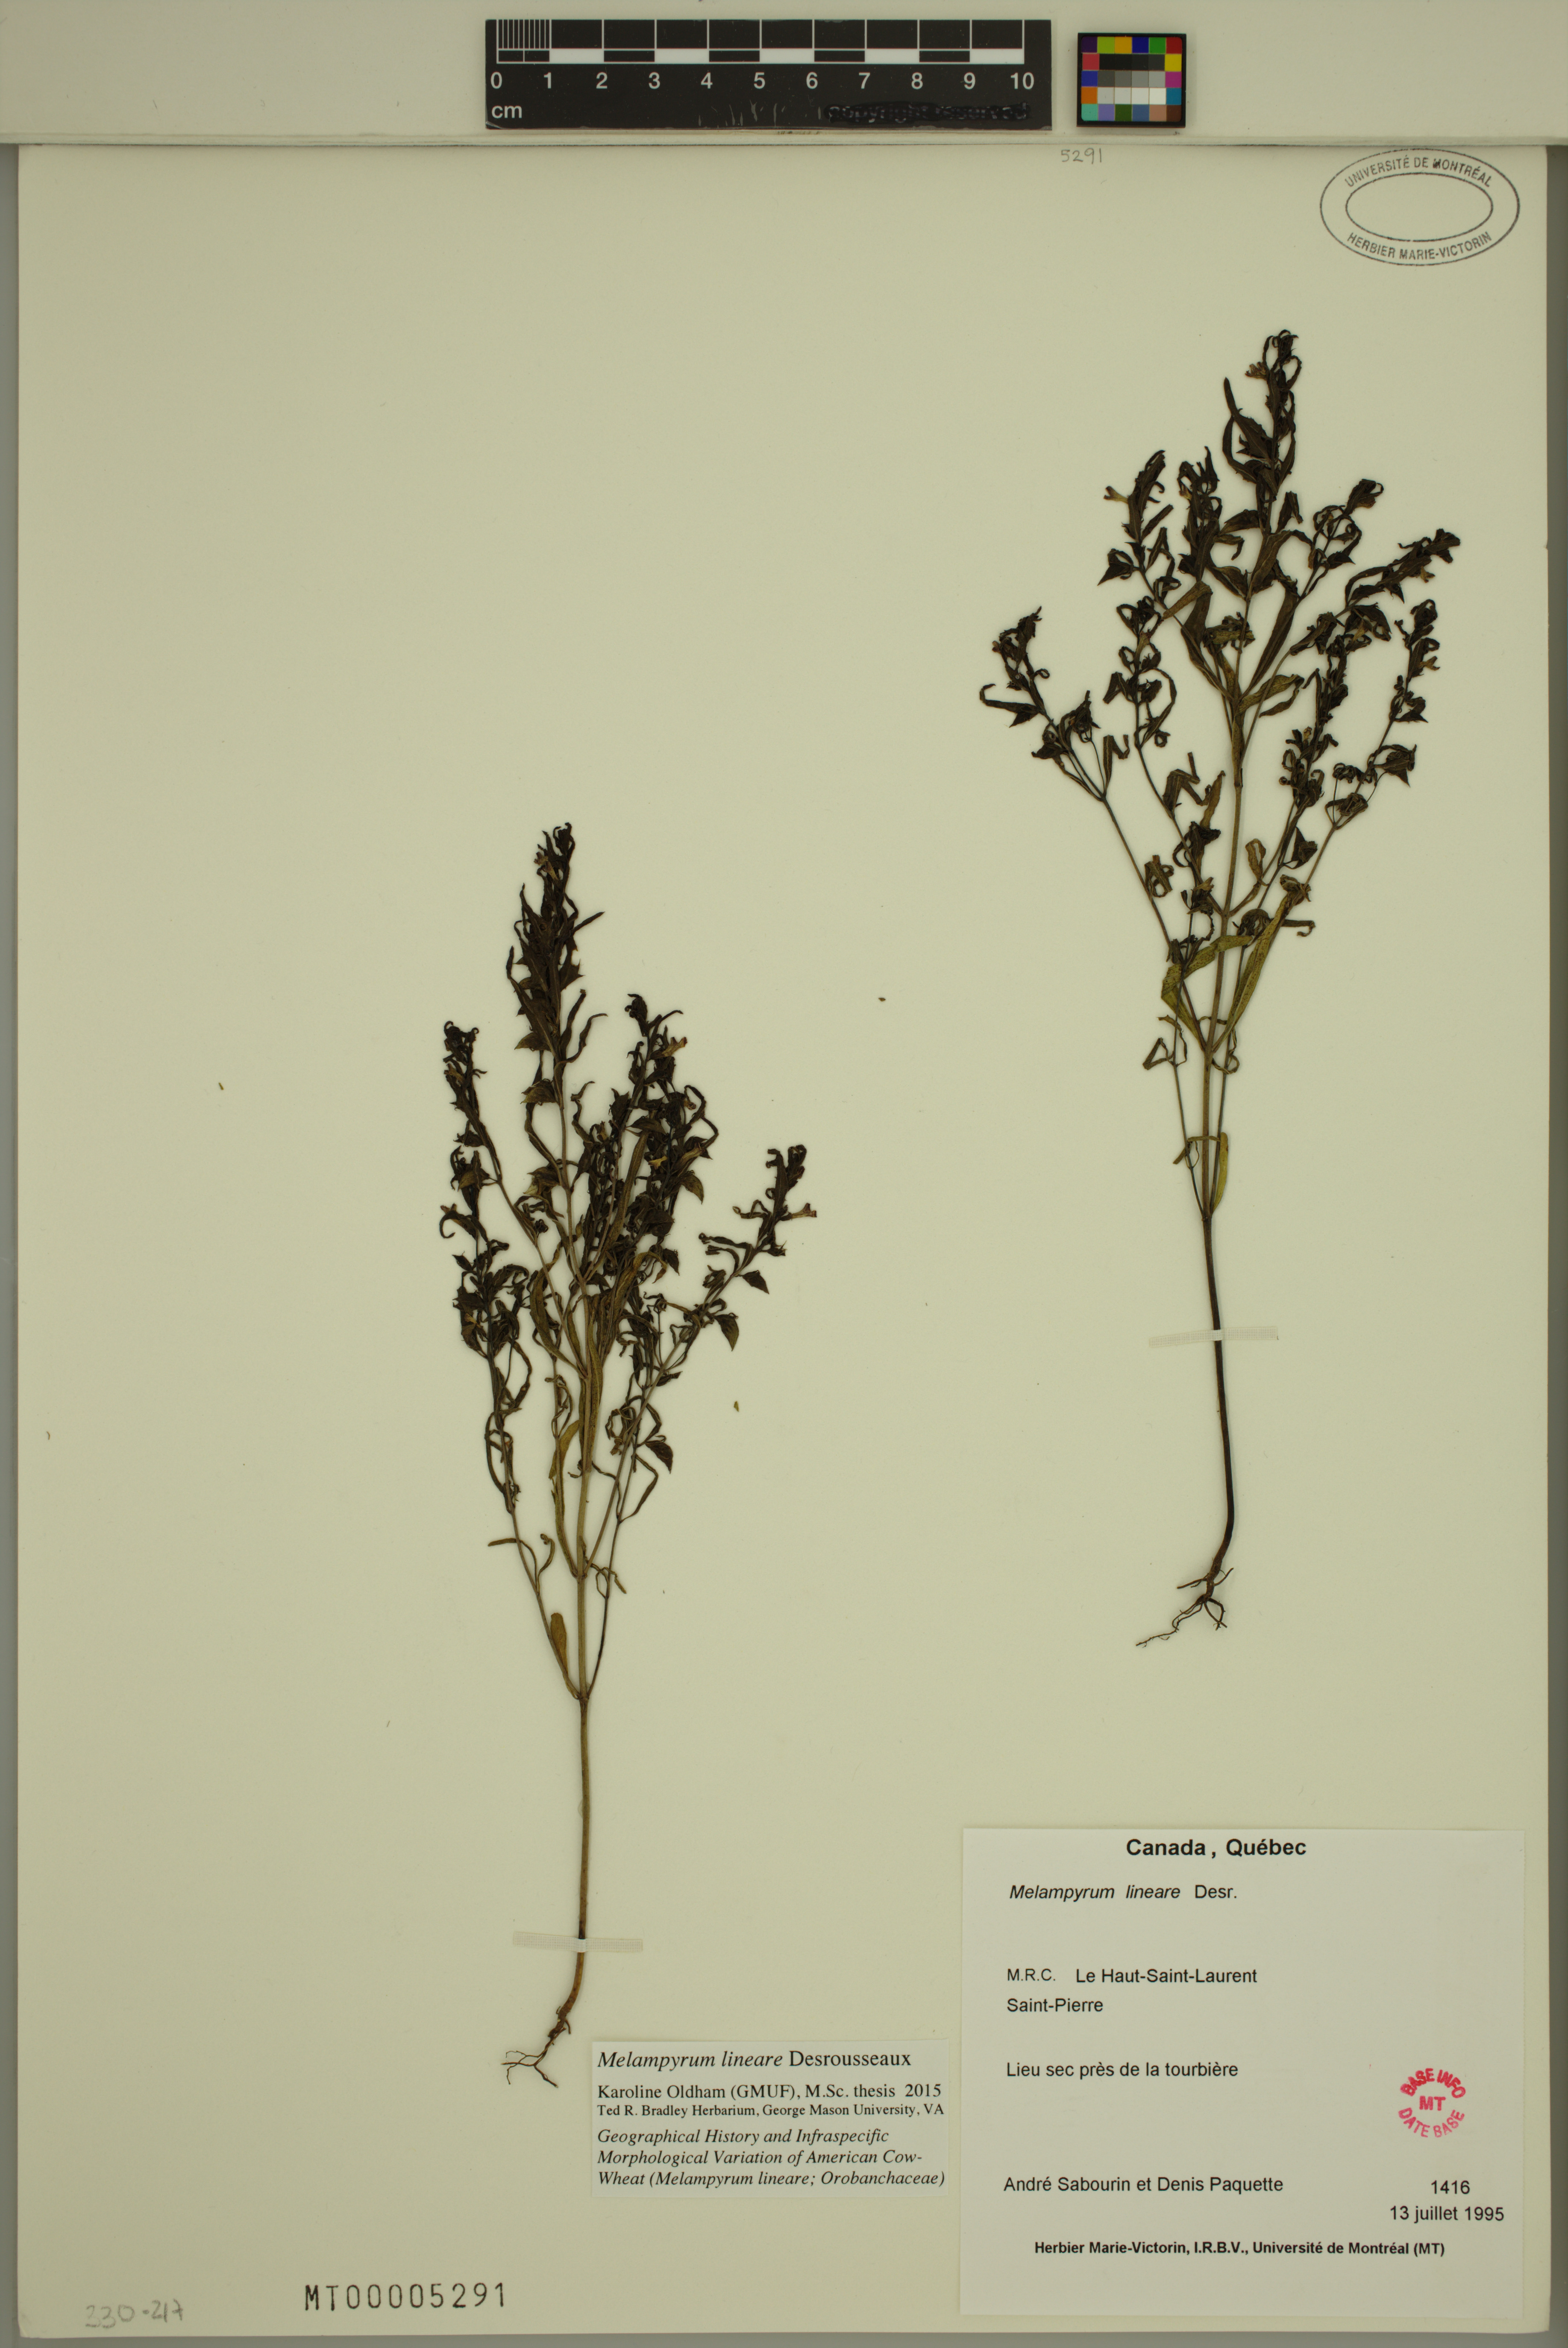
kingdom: Plantae
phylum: Tracheophyta
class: Magnoliopsida
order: Lamiales
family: Orobanchaceae
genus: Melampyrum
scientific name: Melampyrum lineare
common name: American cow-wheat
